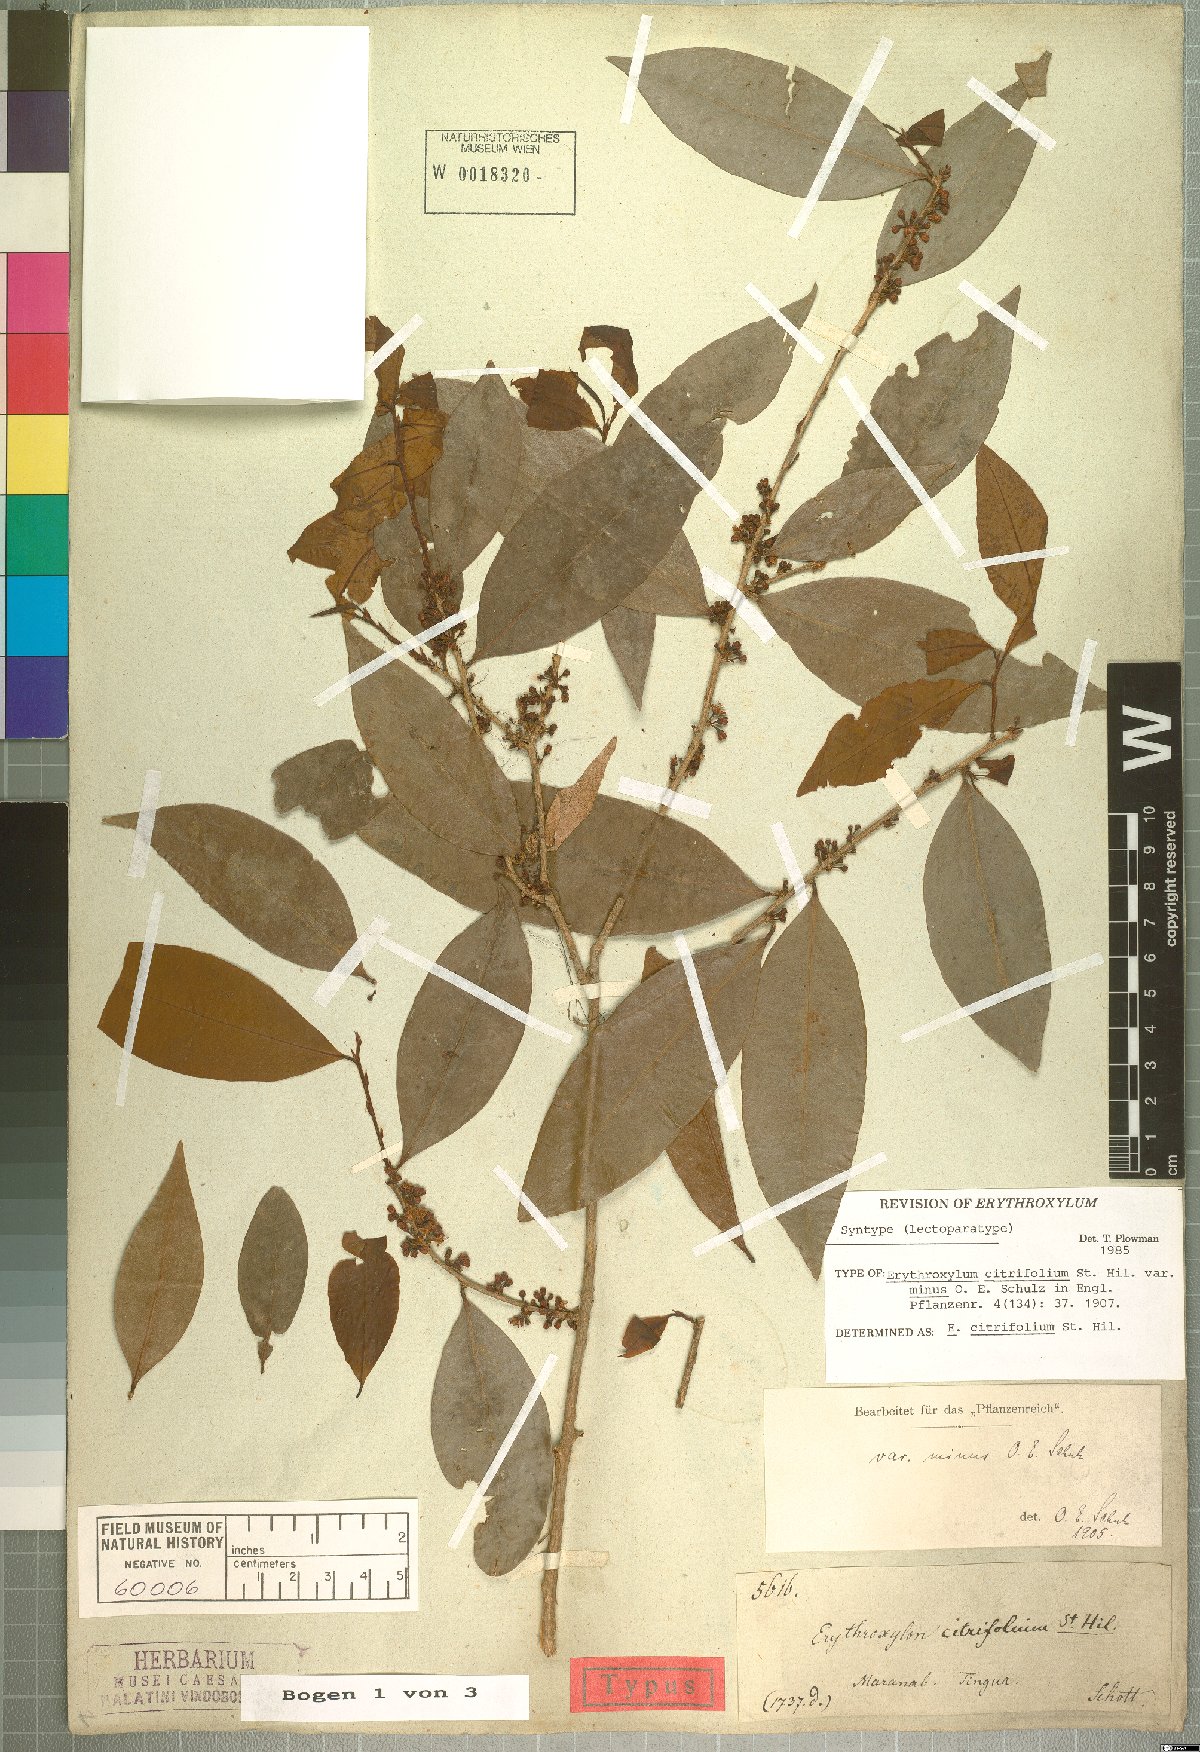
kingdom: Plantae
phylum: Tracheophyta
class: Magnoliopsida
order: Malpighiales
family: Erythroxylaceae
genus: Erythroxylum
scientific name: Erythroxylum citrifolium
